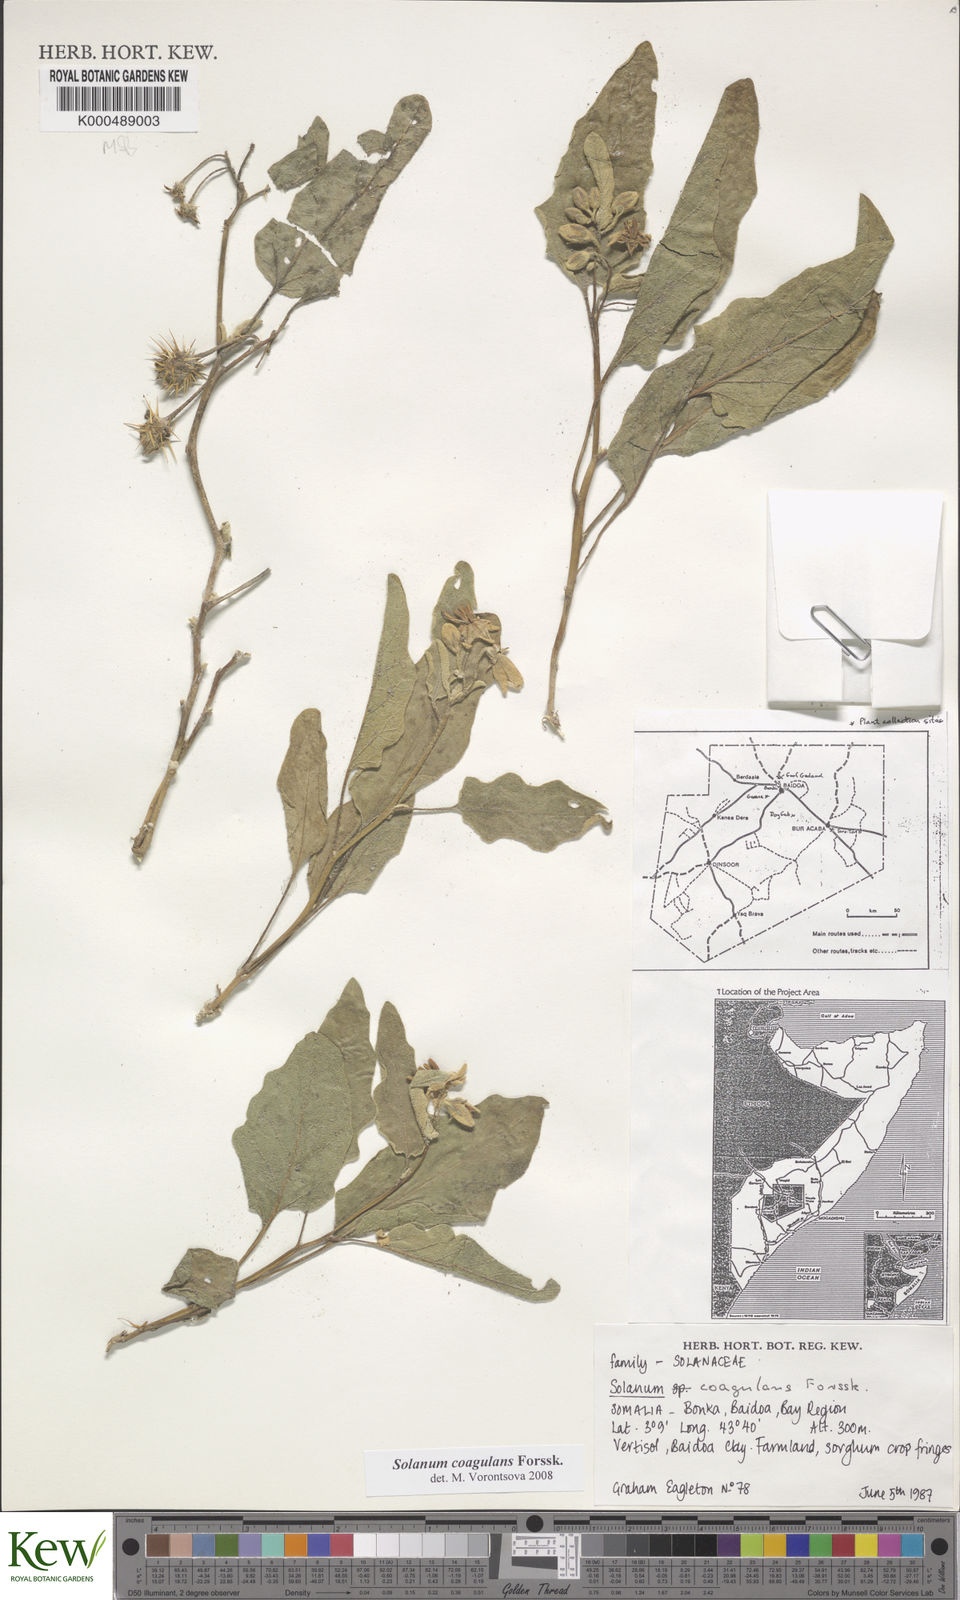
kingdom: Plantae
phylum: Tracheophyta
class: Magnoliopsida
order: Solanales
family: Solanaceae
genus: Solanum
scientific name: Solanum coagulans
